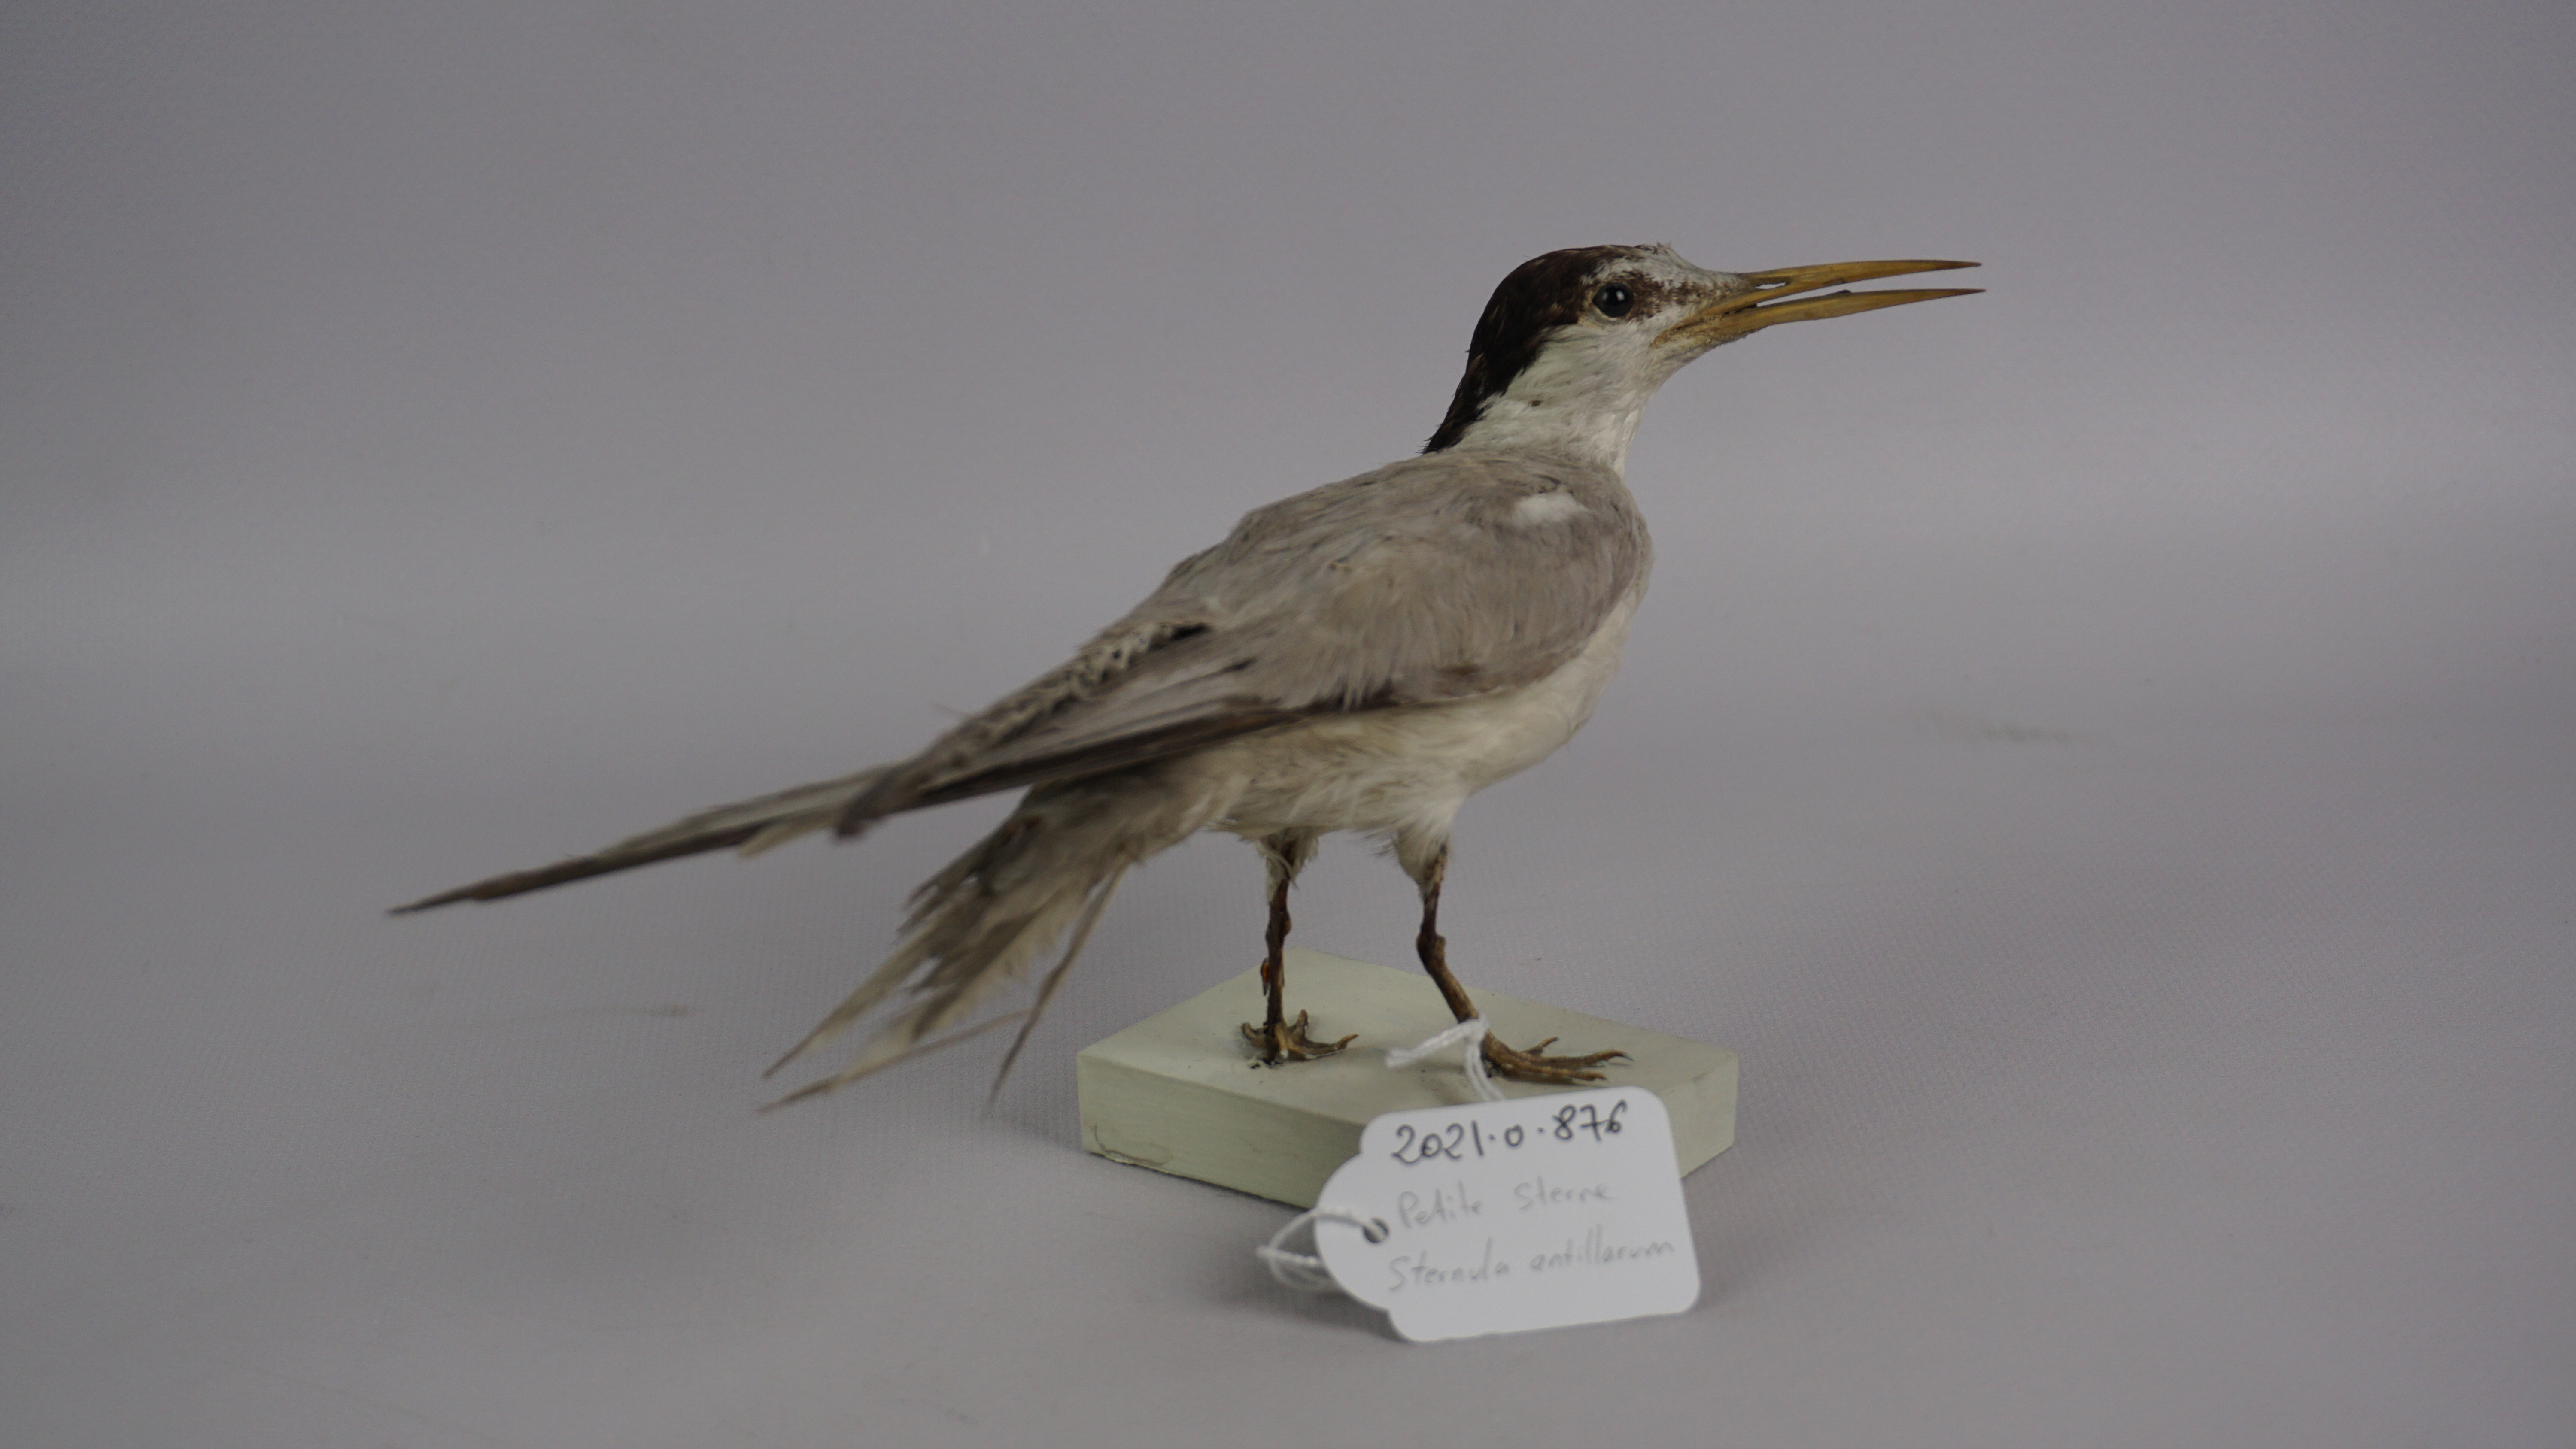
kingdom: Animalia
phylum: Chordata
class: Aves
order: Charadriiformes
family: Laridae
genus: Sternula
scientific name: Sternula antillarum
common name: Least tern
